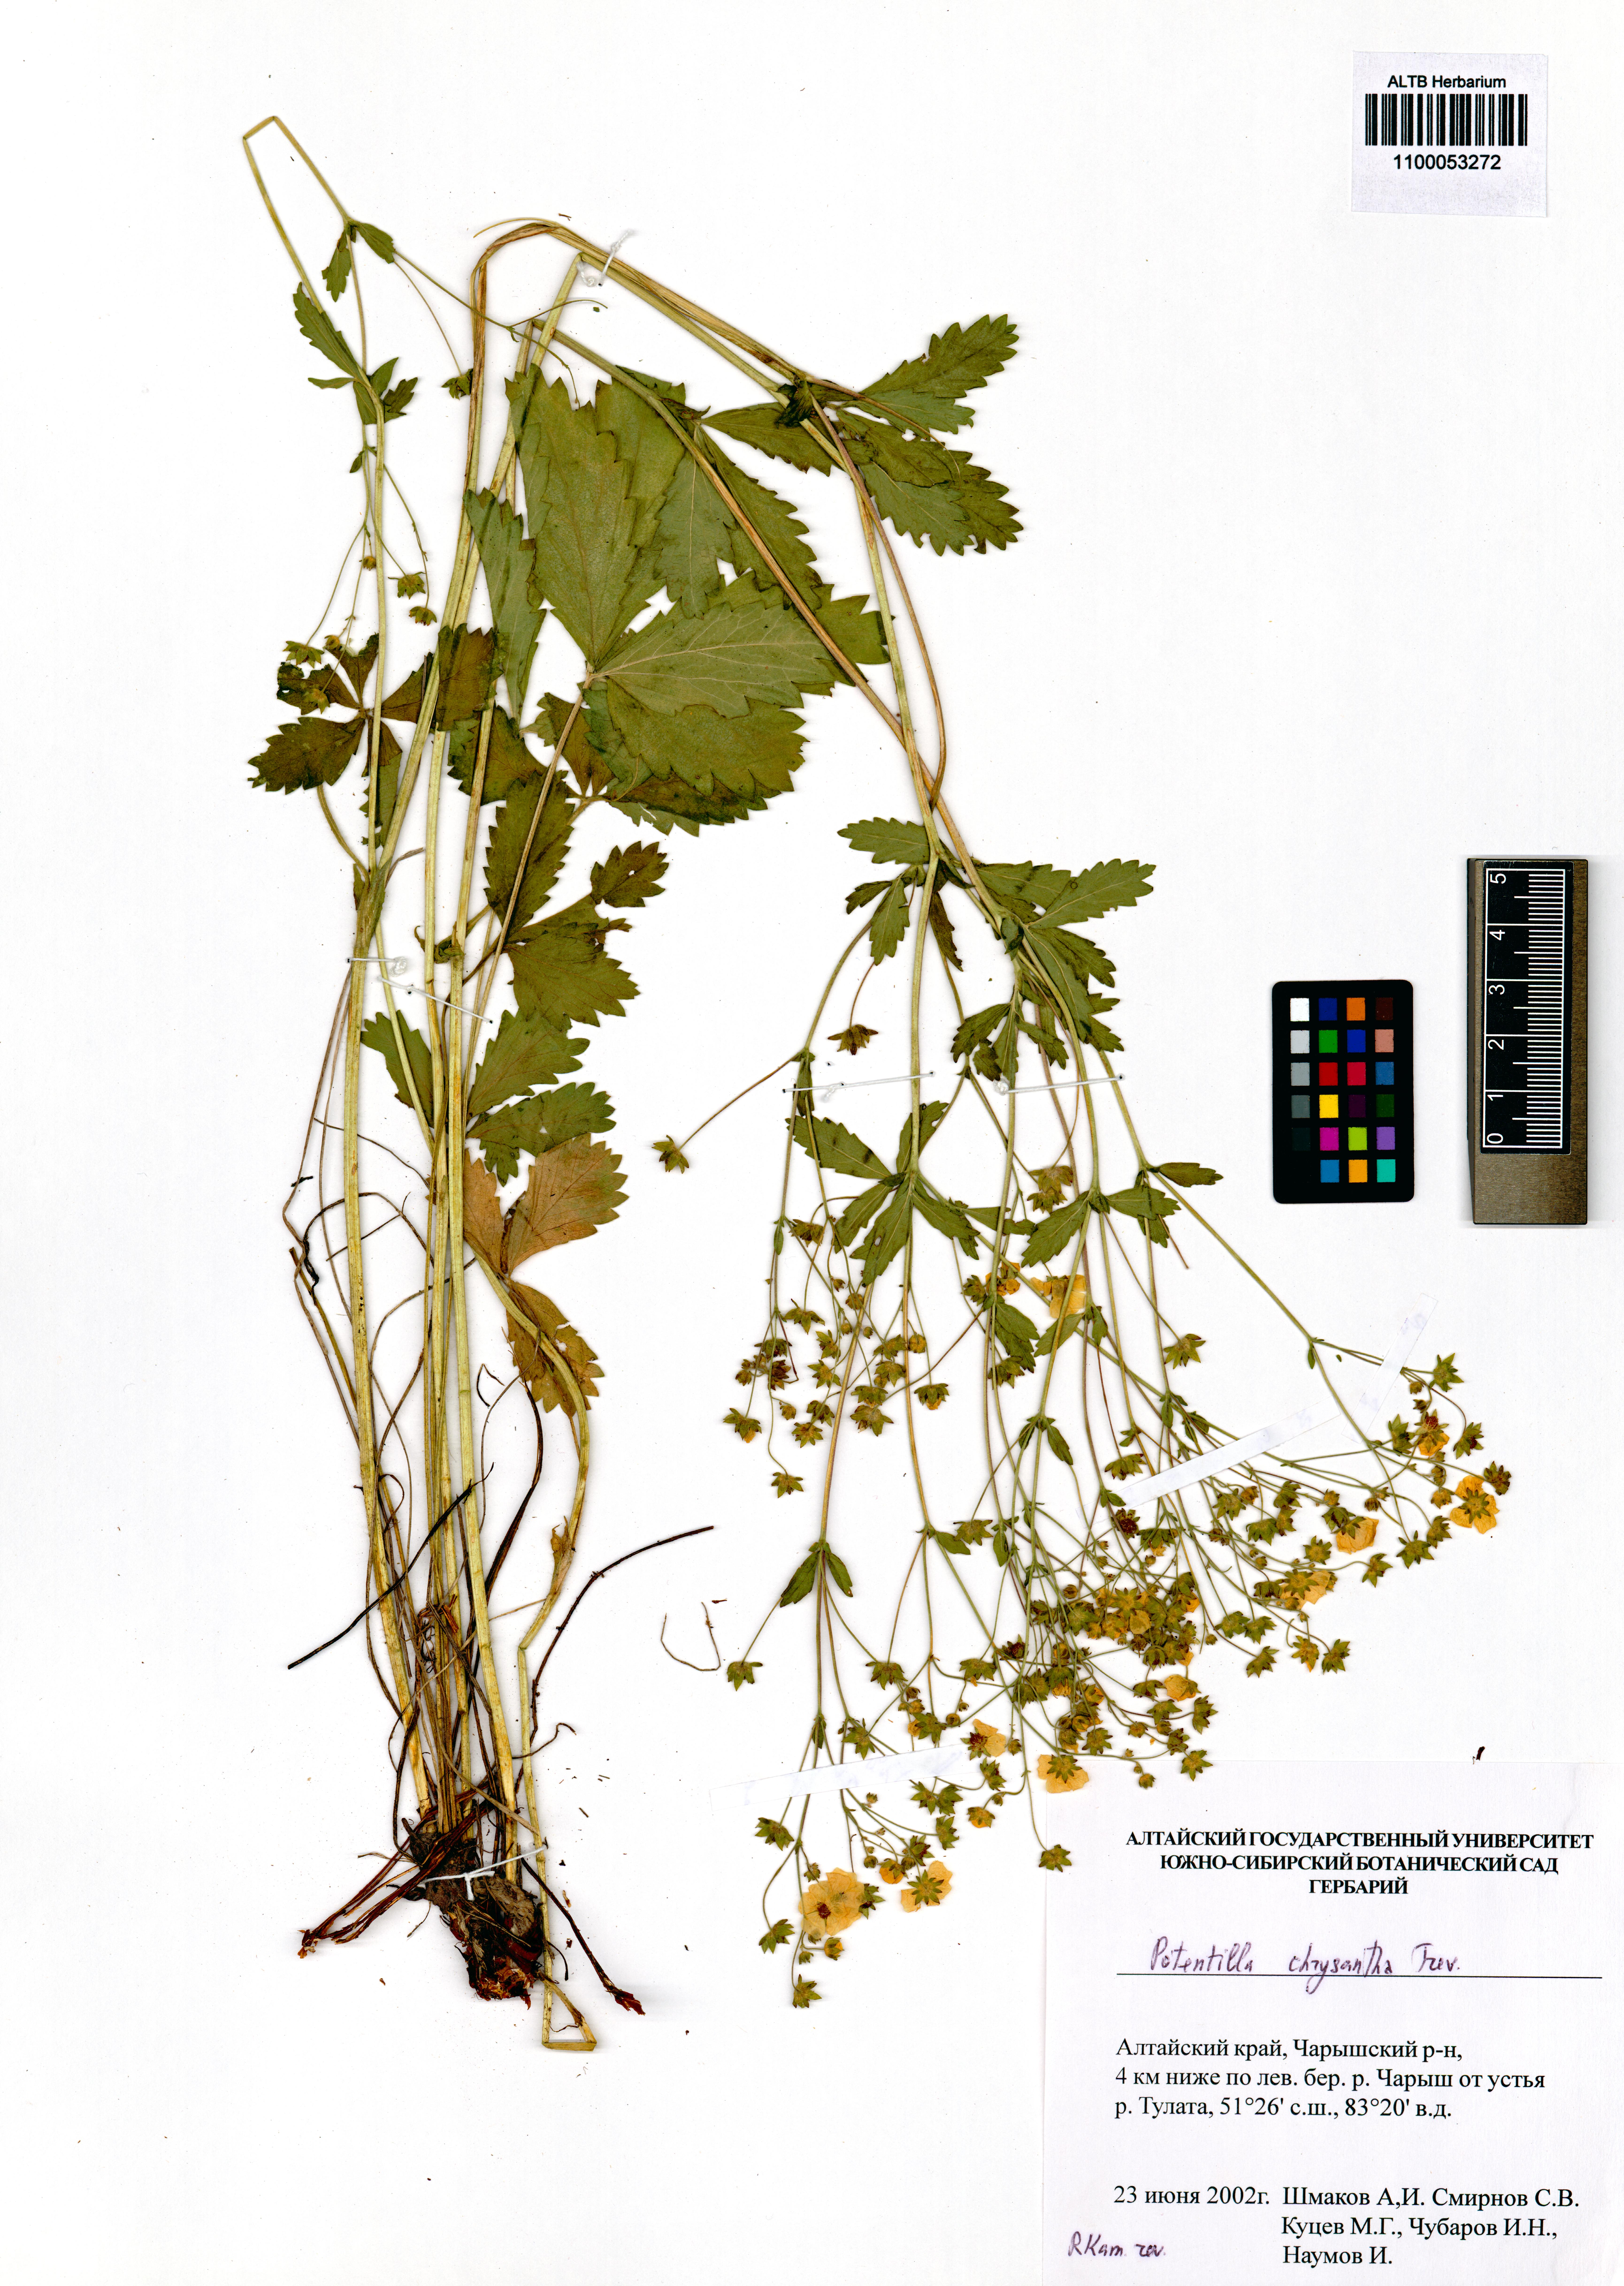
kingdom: Plantae
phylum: Tracheophyta
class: Magnoliopsida
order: Rosales
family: Rosaceae
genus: Potentilla
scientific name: Potentilla chrysantha
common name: Thuringian cinquefoil
